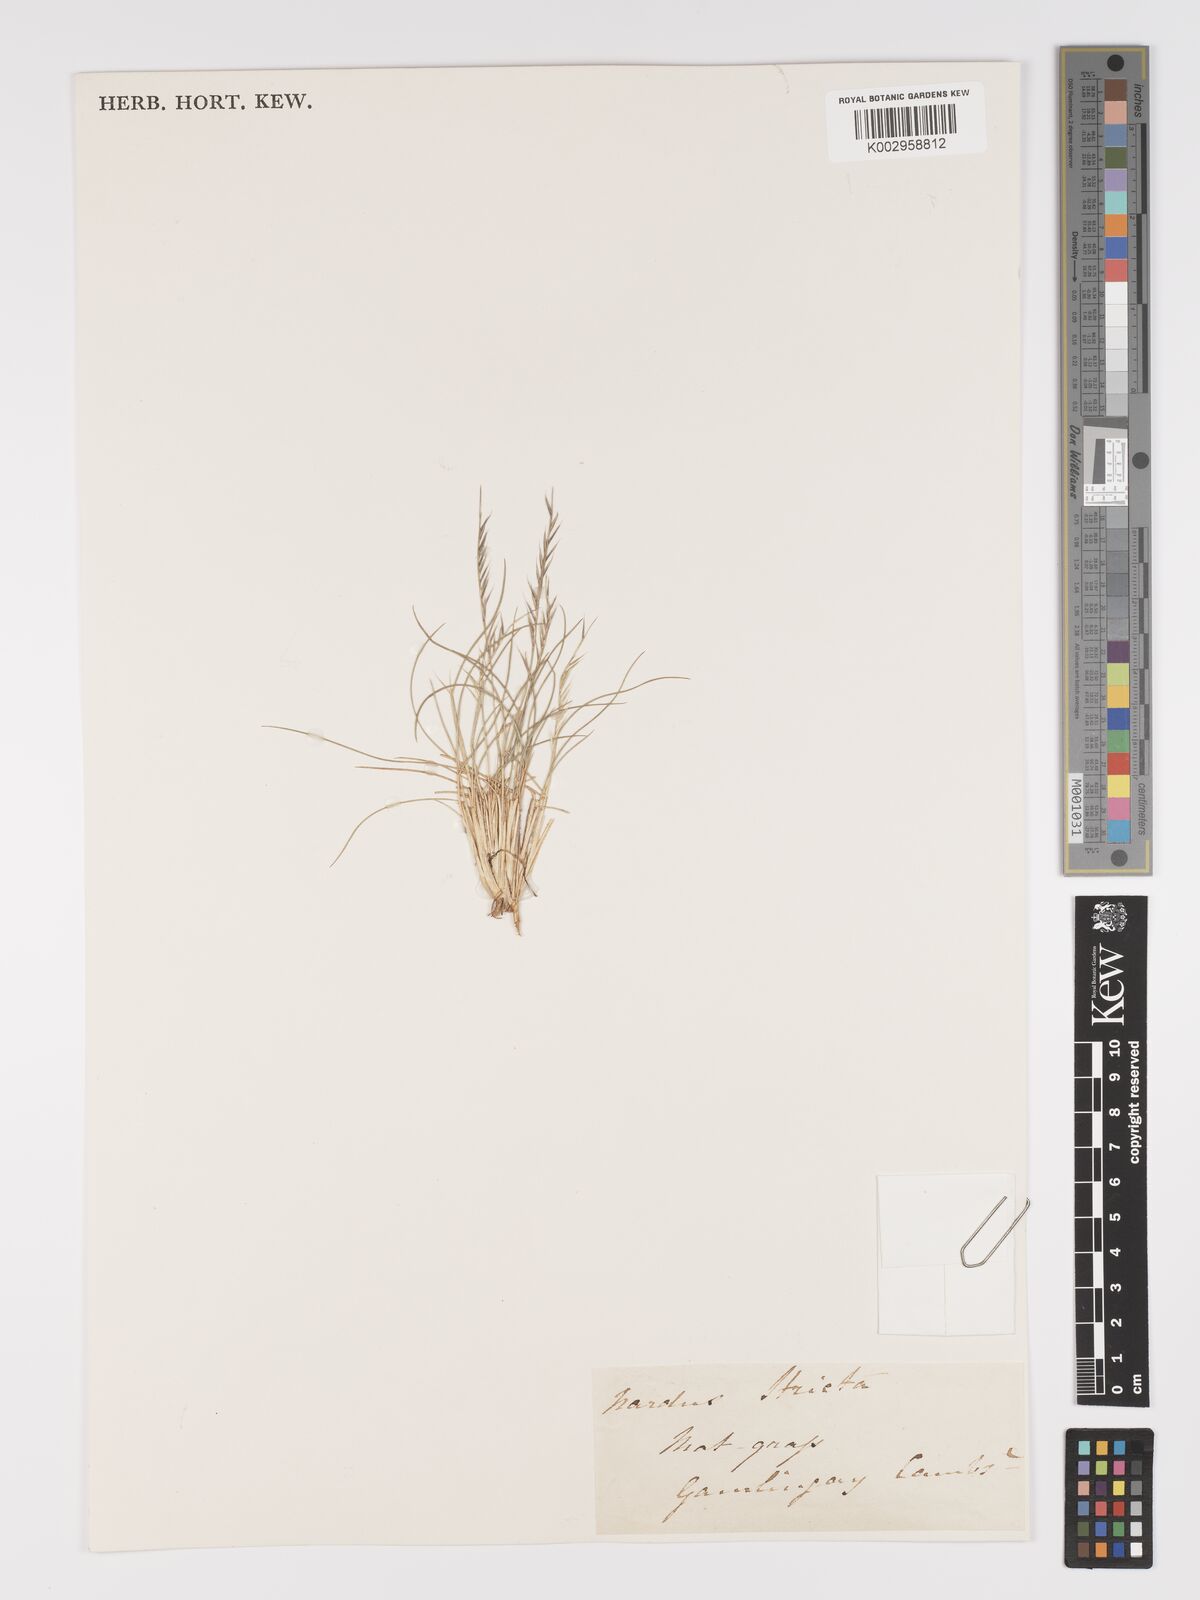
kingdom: Plantae
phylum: Tracheophyta
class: Liliopsida
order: Poales
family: Poaceae
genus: Nardus
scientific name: Nardus stricta
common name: Mat-grass
